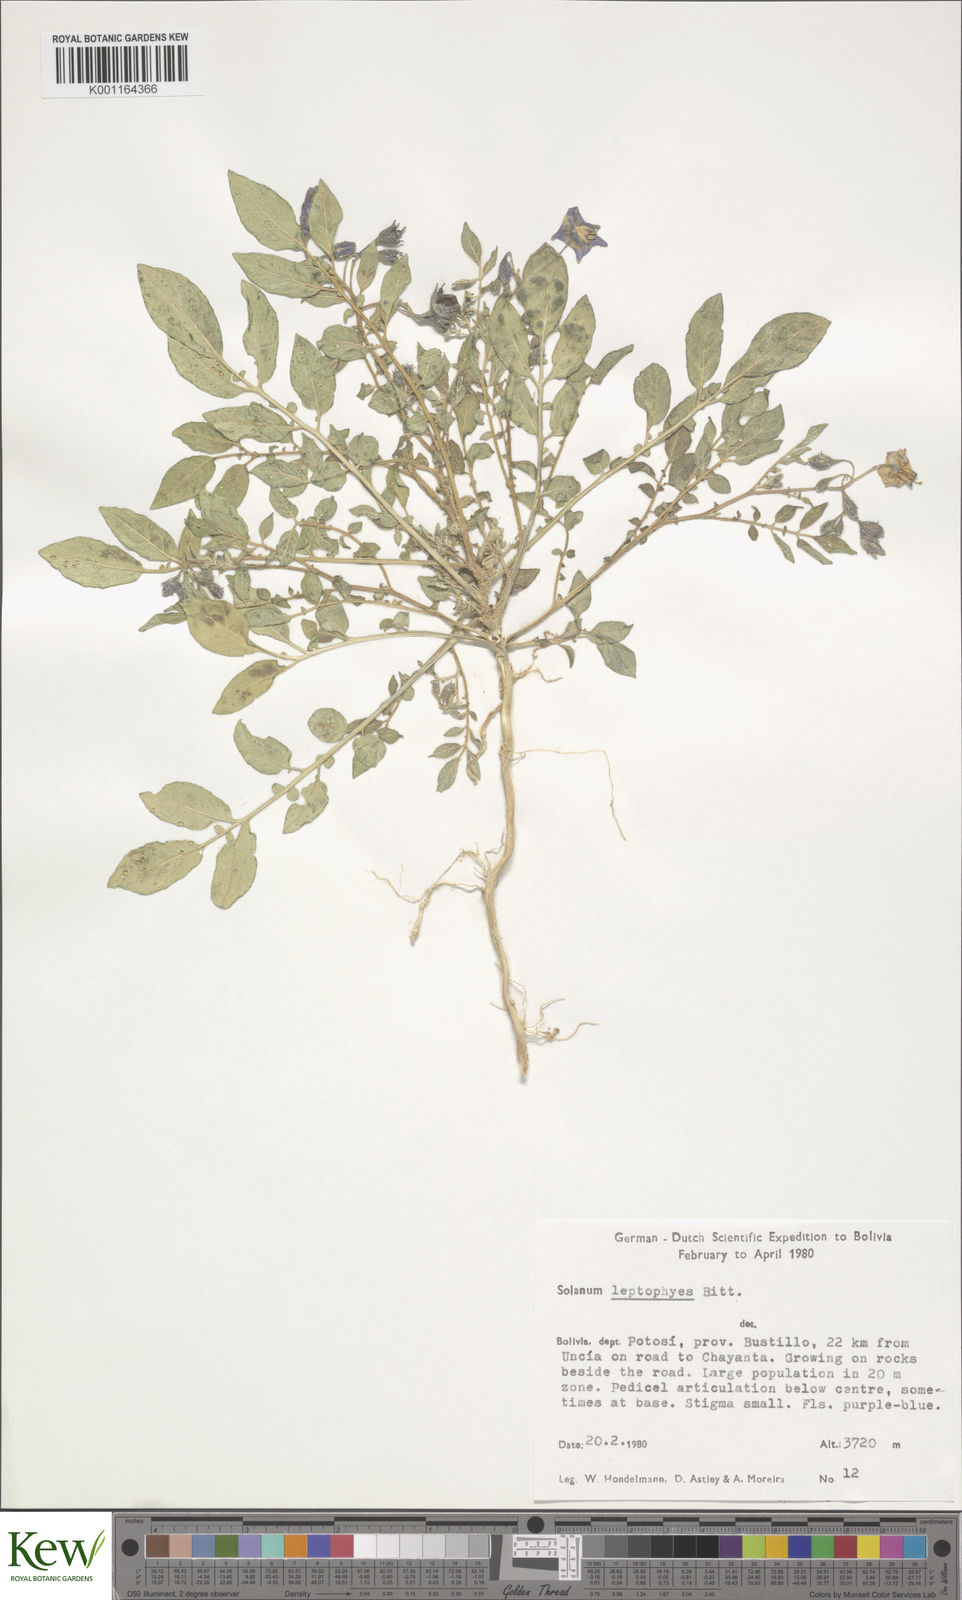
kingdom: Plantae
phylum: Tracheophyta
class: Magnoliopsida
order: Solanales
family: Solanaceae
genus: Solanum
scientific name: Solanum brevicaule
